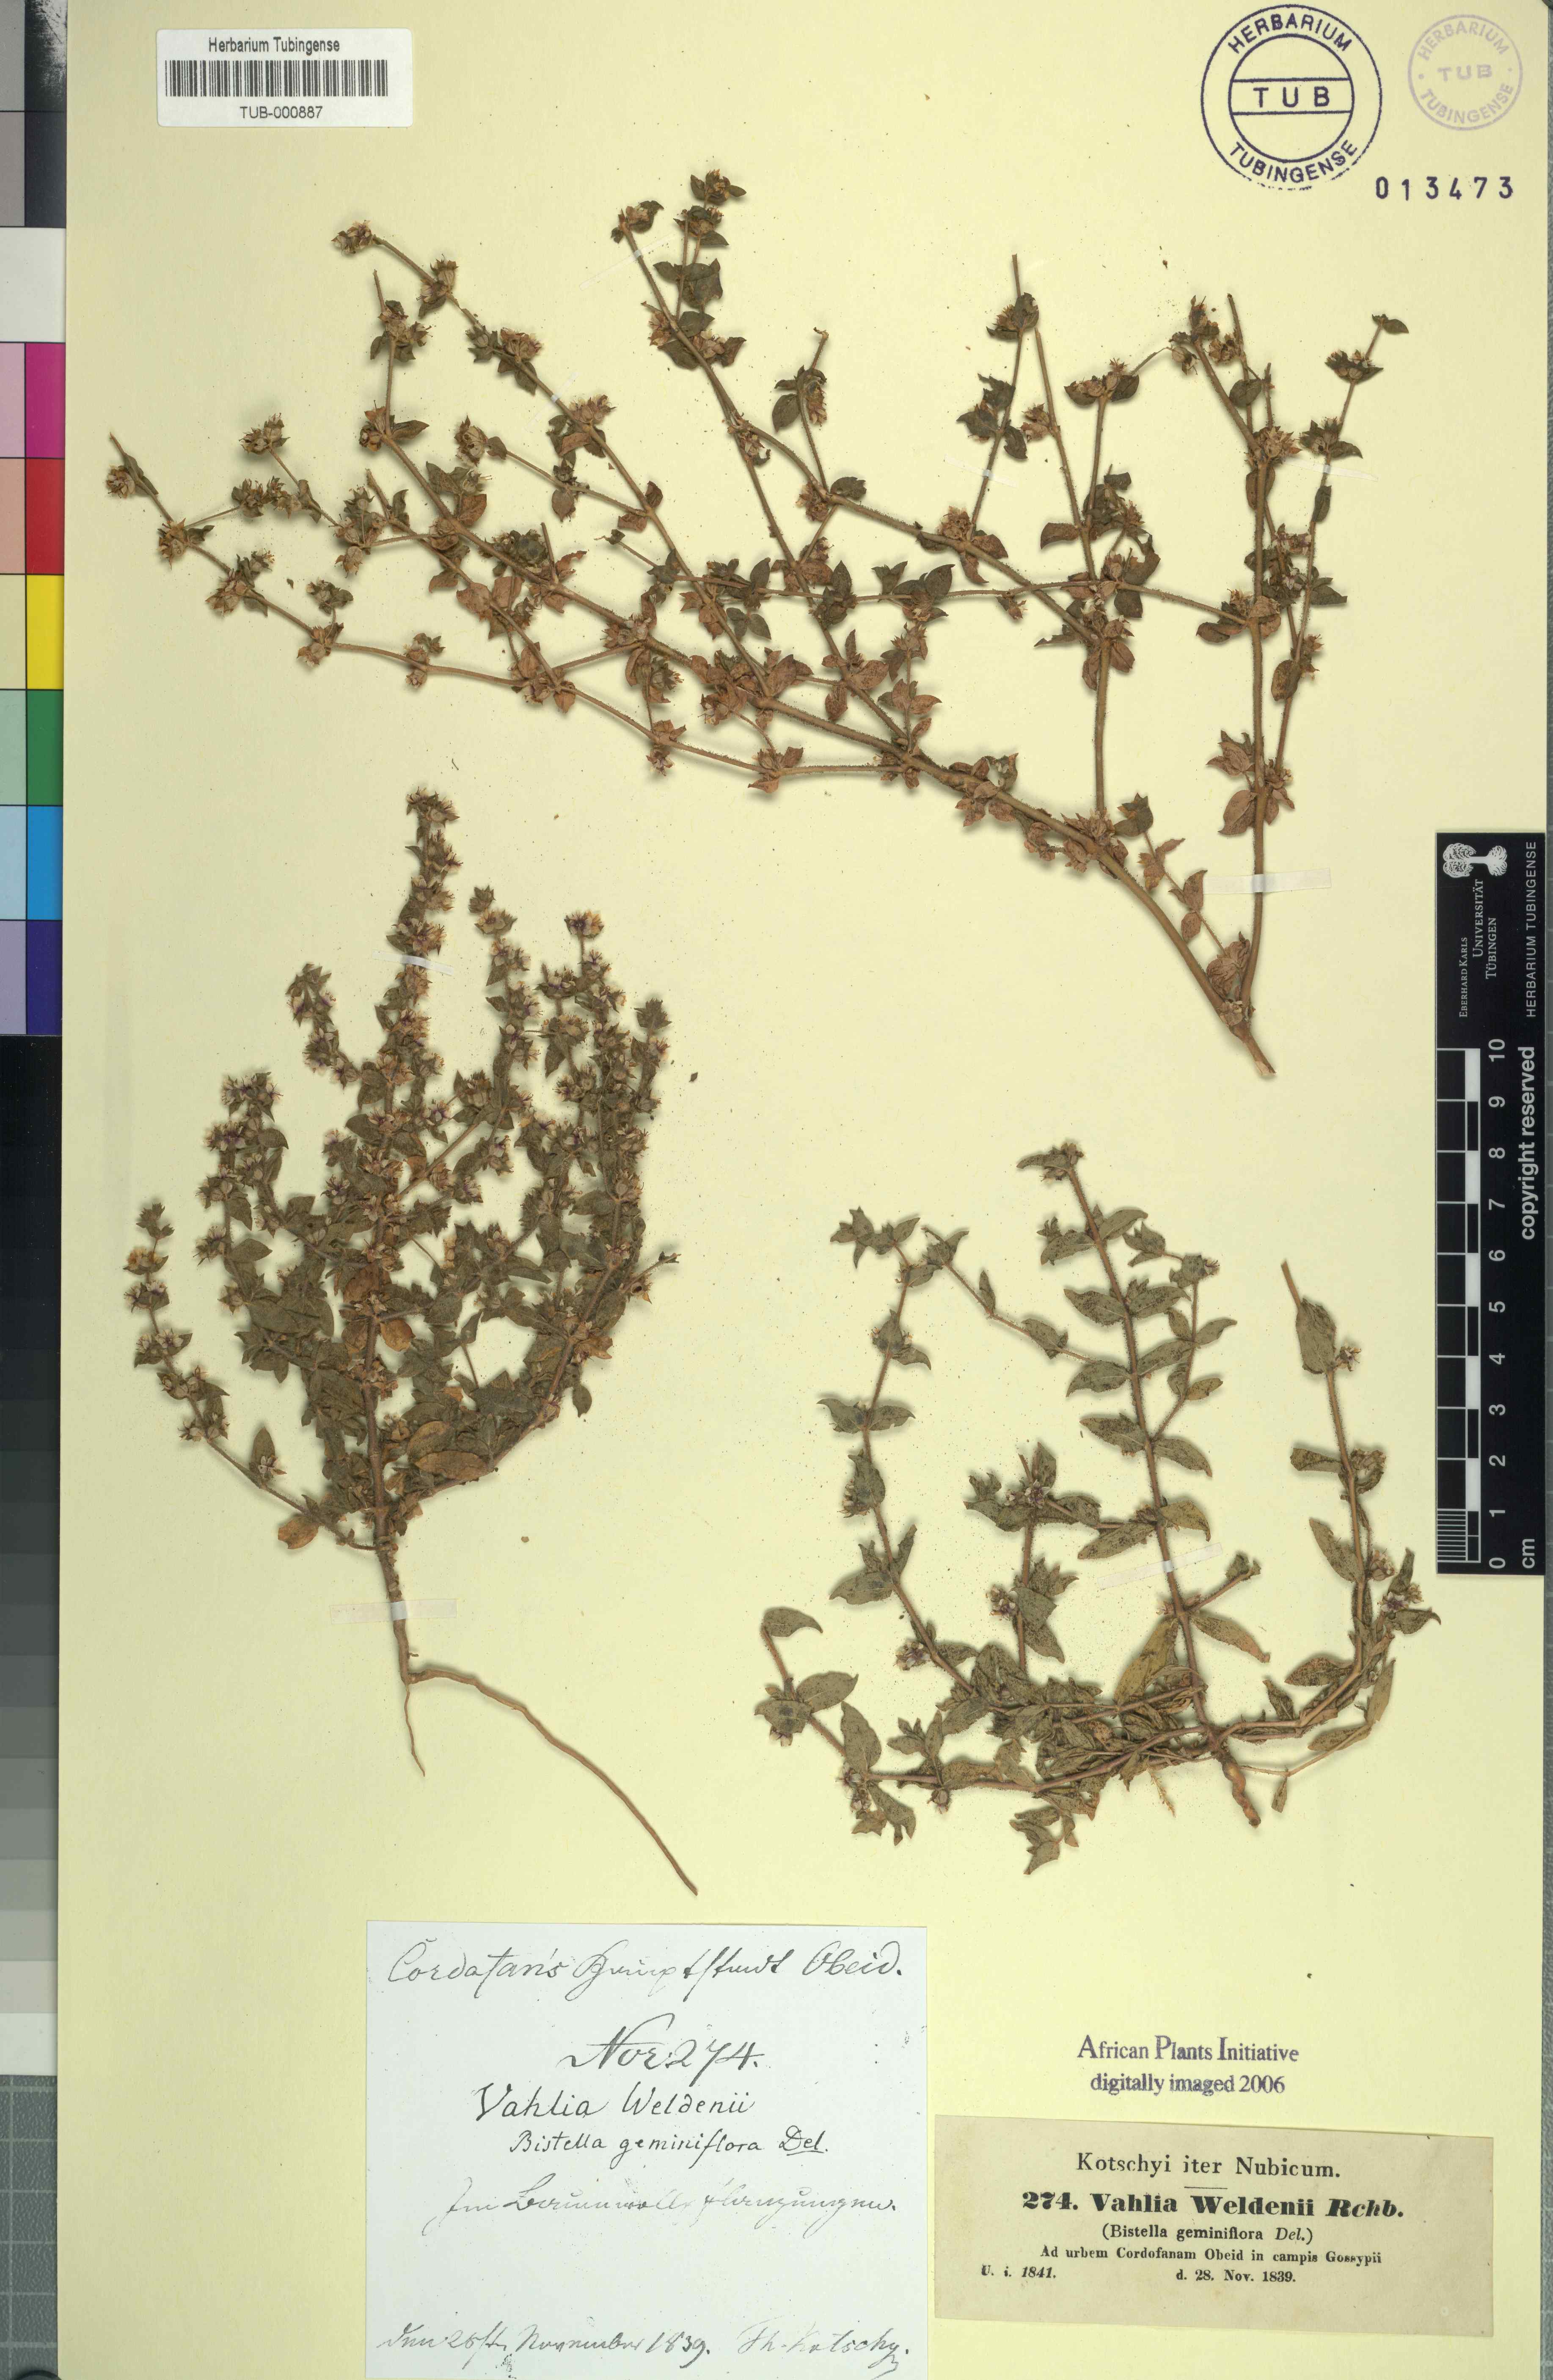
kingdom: Plantae
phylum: Tracheophyta
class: Magnoliopsida
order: Vahliales
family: Vahliaceae
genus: Vahlia
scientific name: Vahlia digyna
